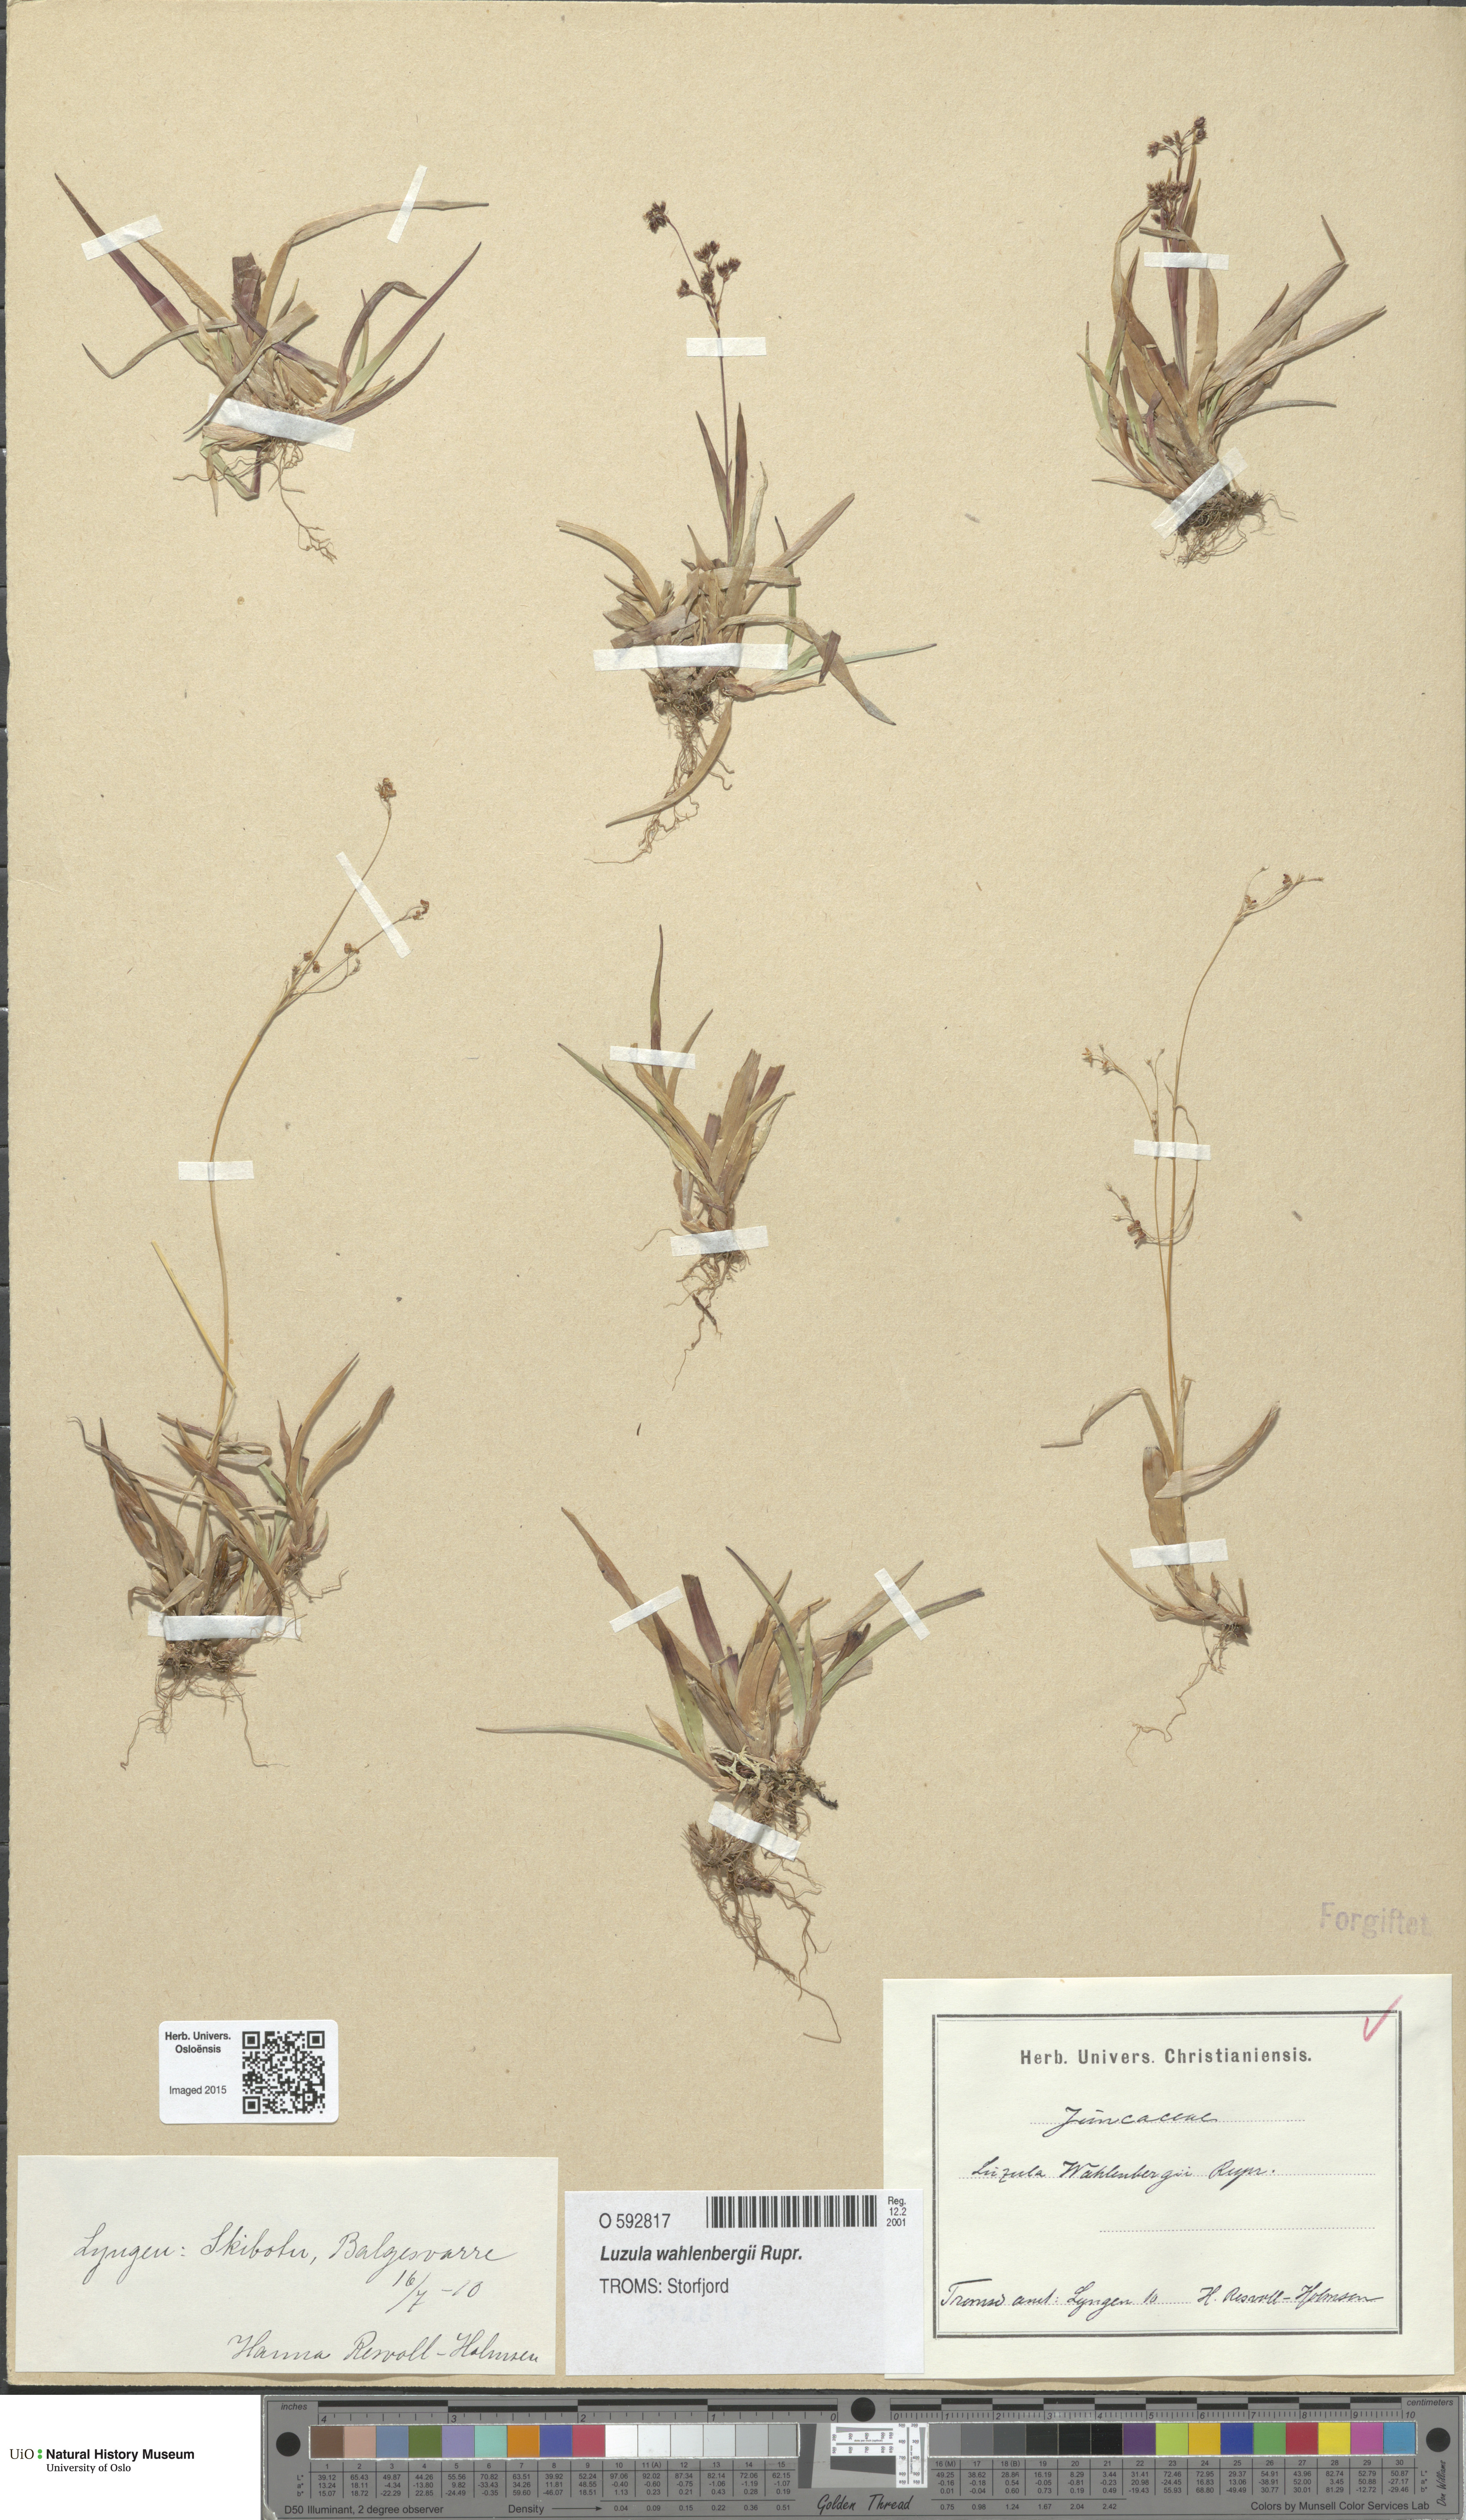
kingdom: Plantae
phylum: Tracheophyta
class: Liliopsida
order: Poales
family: Juncaceae
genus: Luzula
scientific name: Luzula wahlenbergii
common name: Wahlenberg's wood-rush
